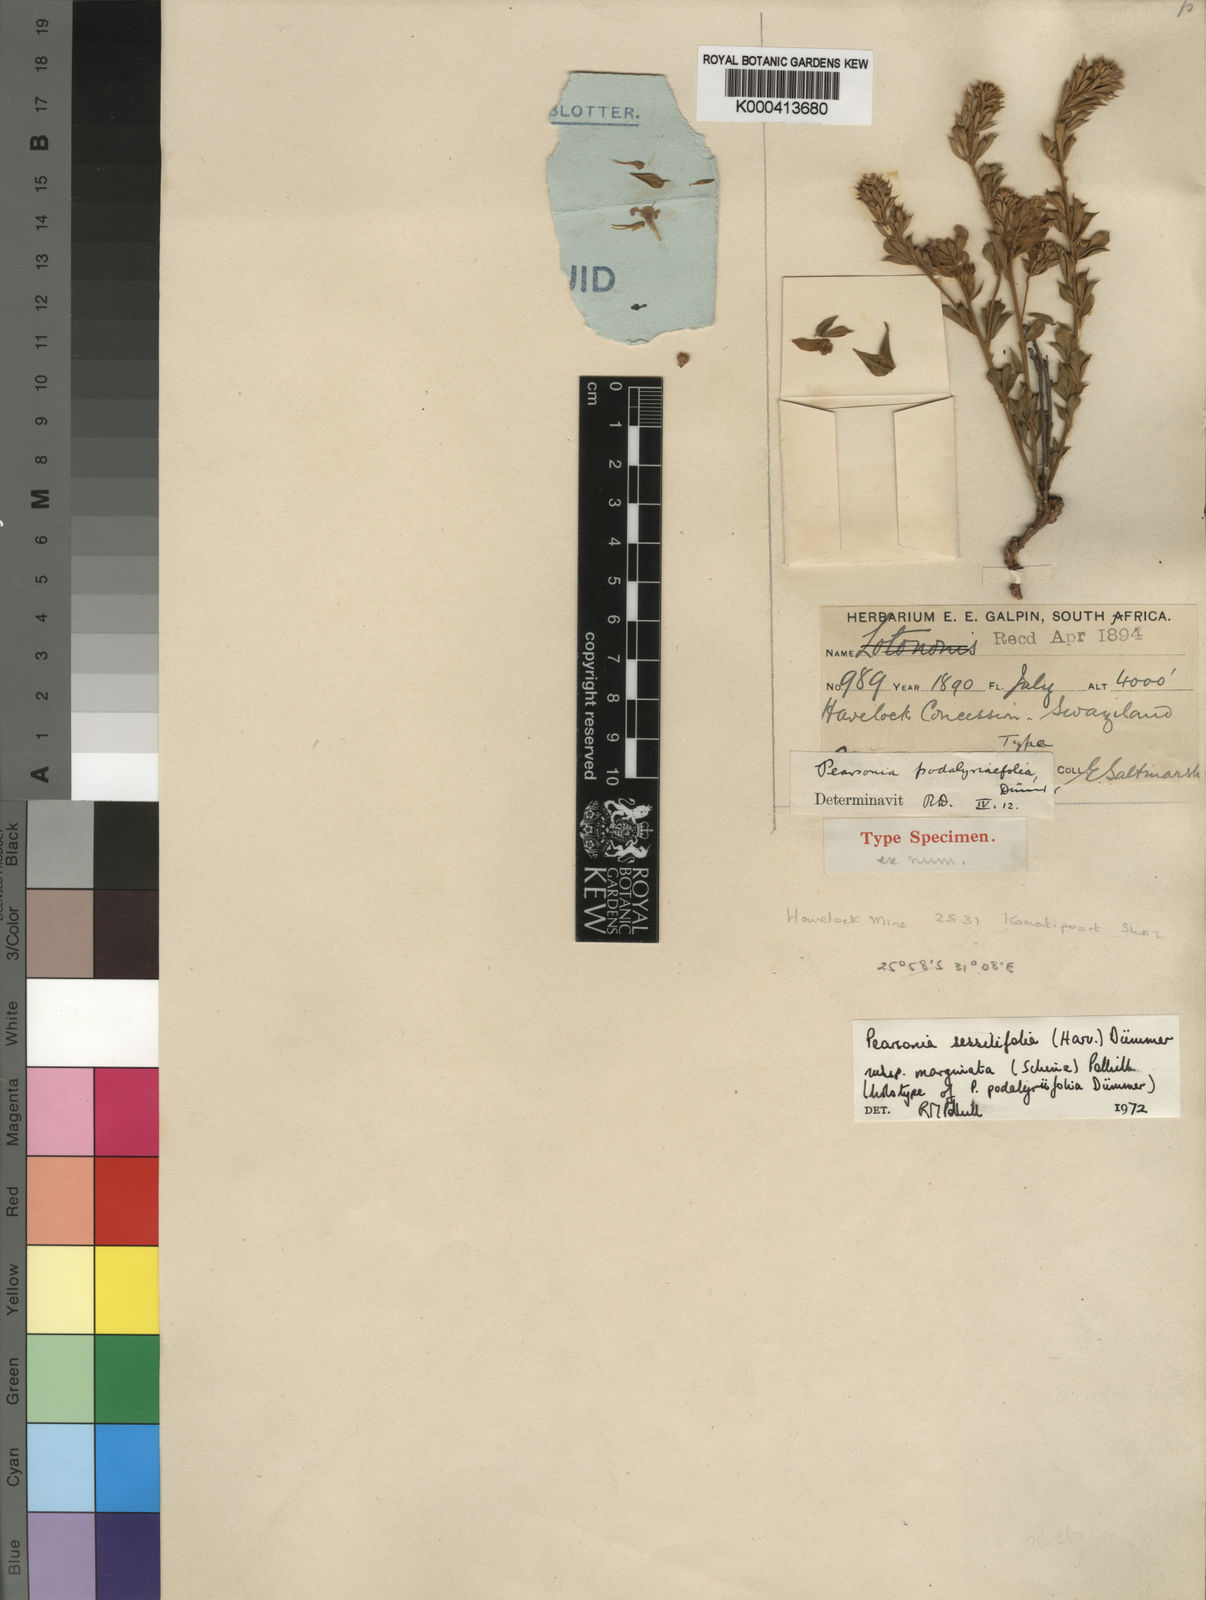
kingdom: Plantae
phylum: Tracheophyta
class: Magnoliopsida
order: Fabales
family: Fabaceae
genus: Pearsonia
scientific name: Pearsonia sessilifolia
